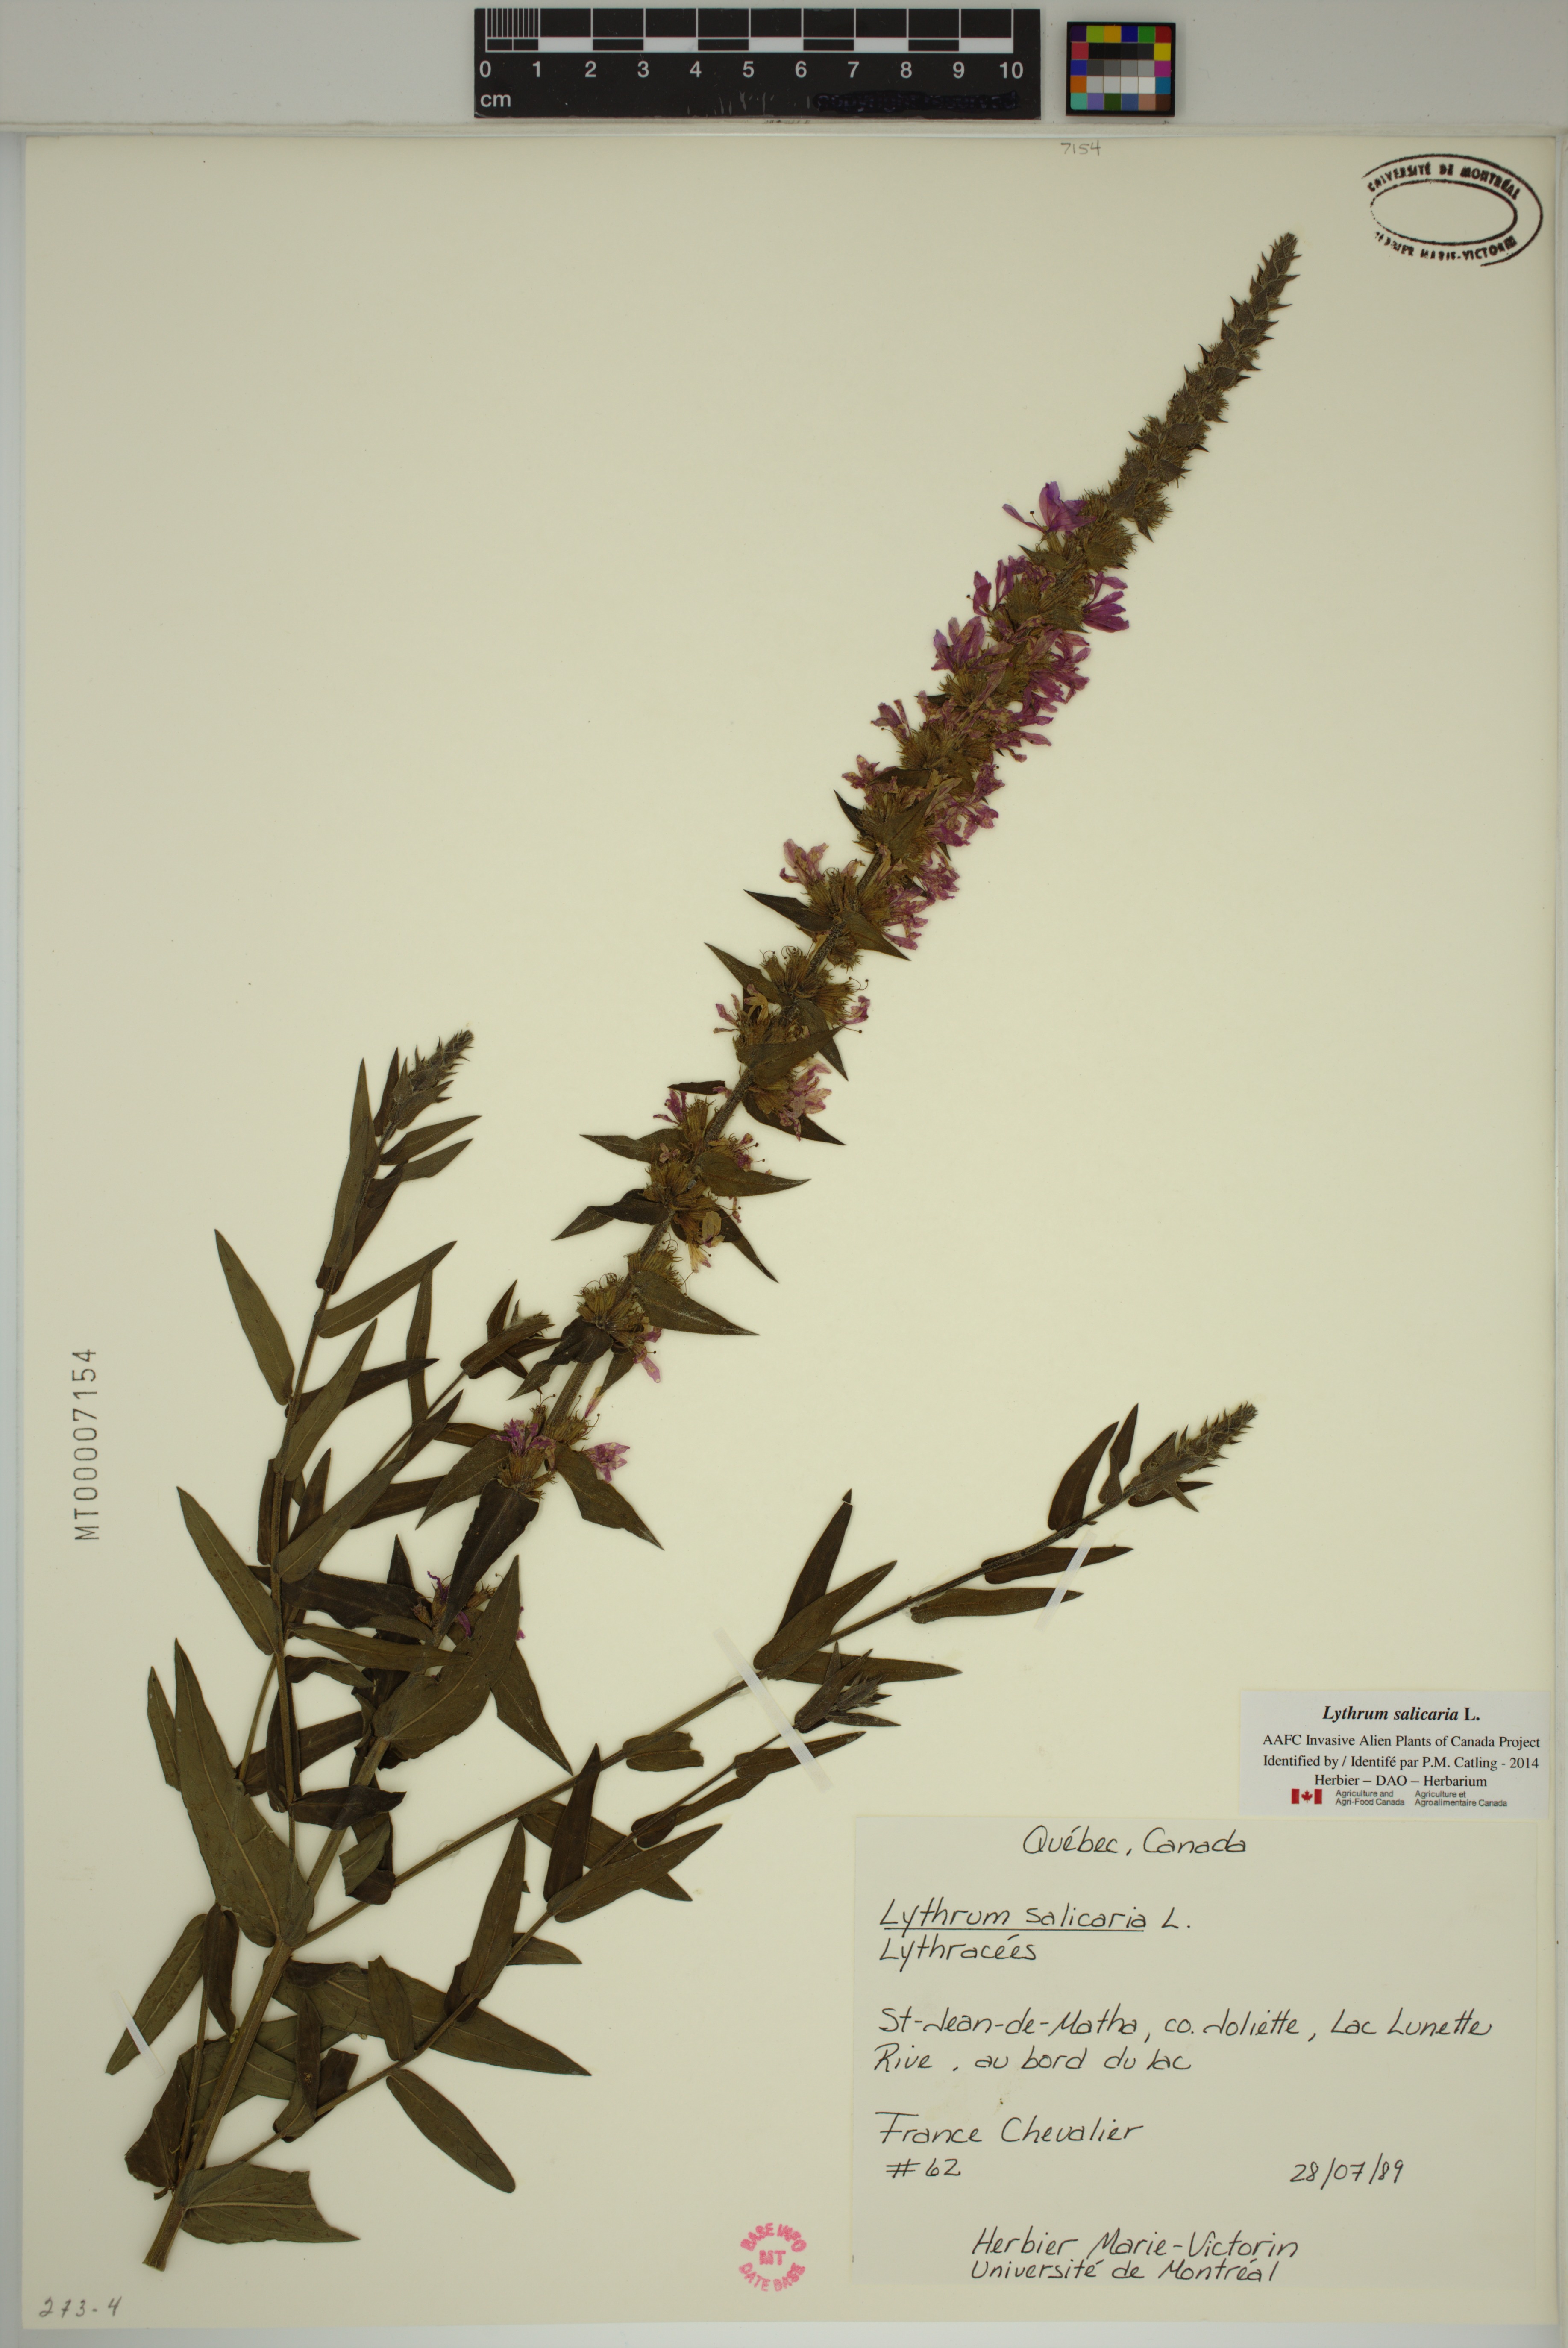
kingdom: Plantae
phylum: Tracheophyta
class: Magnoliopsida
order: Myrtales
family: Lythraceae
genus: Lythrum
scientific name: Lythrum salicaria
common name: Purple loosestrife
